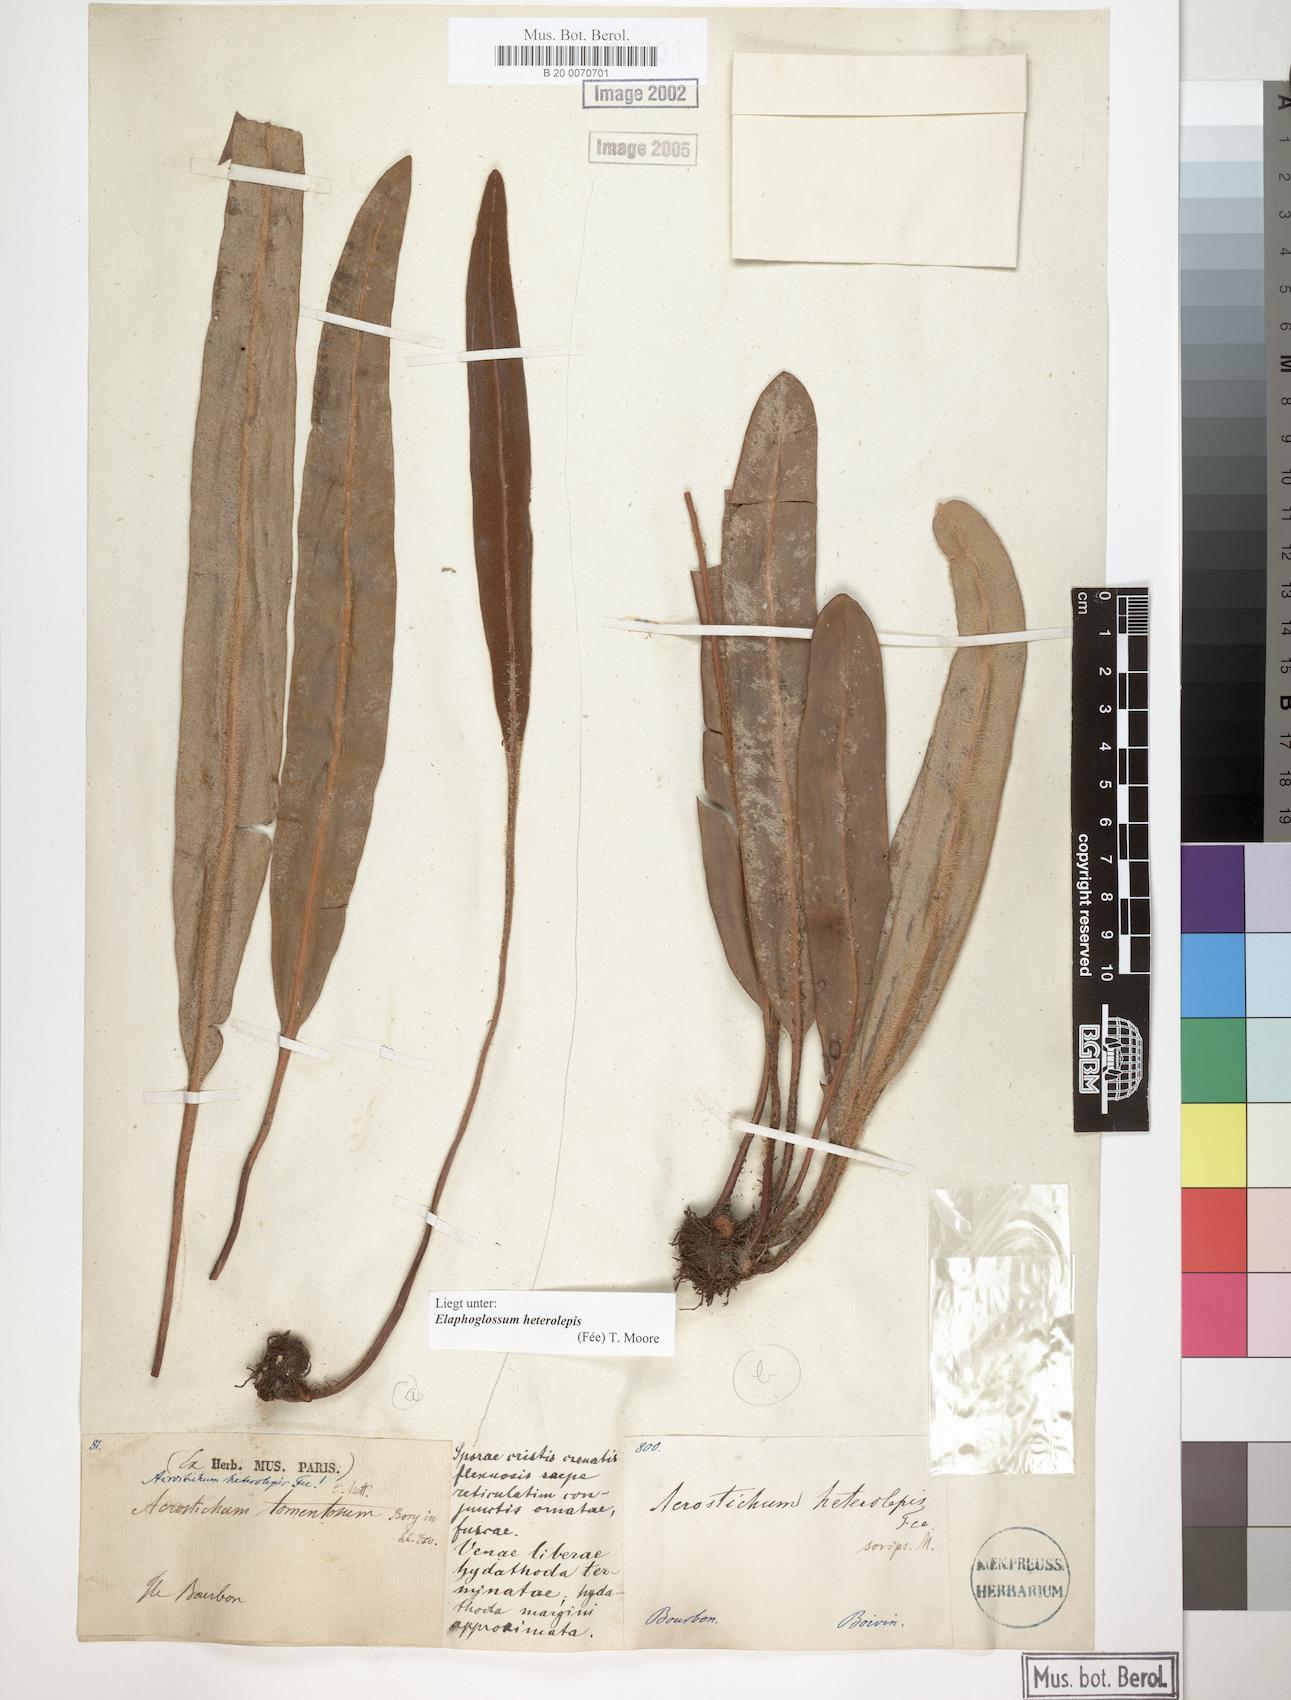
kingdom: Plantae
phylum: Tracheophyta
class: Polypodiopsida
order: Polypodiales
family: Dryopteridaceae
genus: Elaphoglossum
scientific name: Elaphoglossum heterolepis
